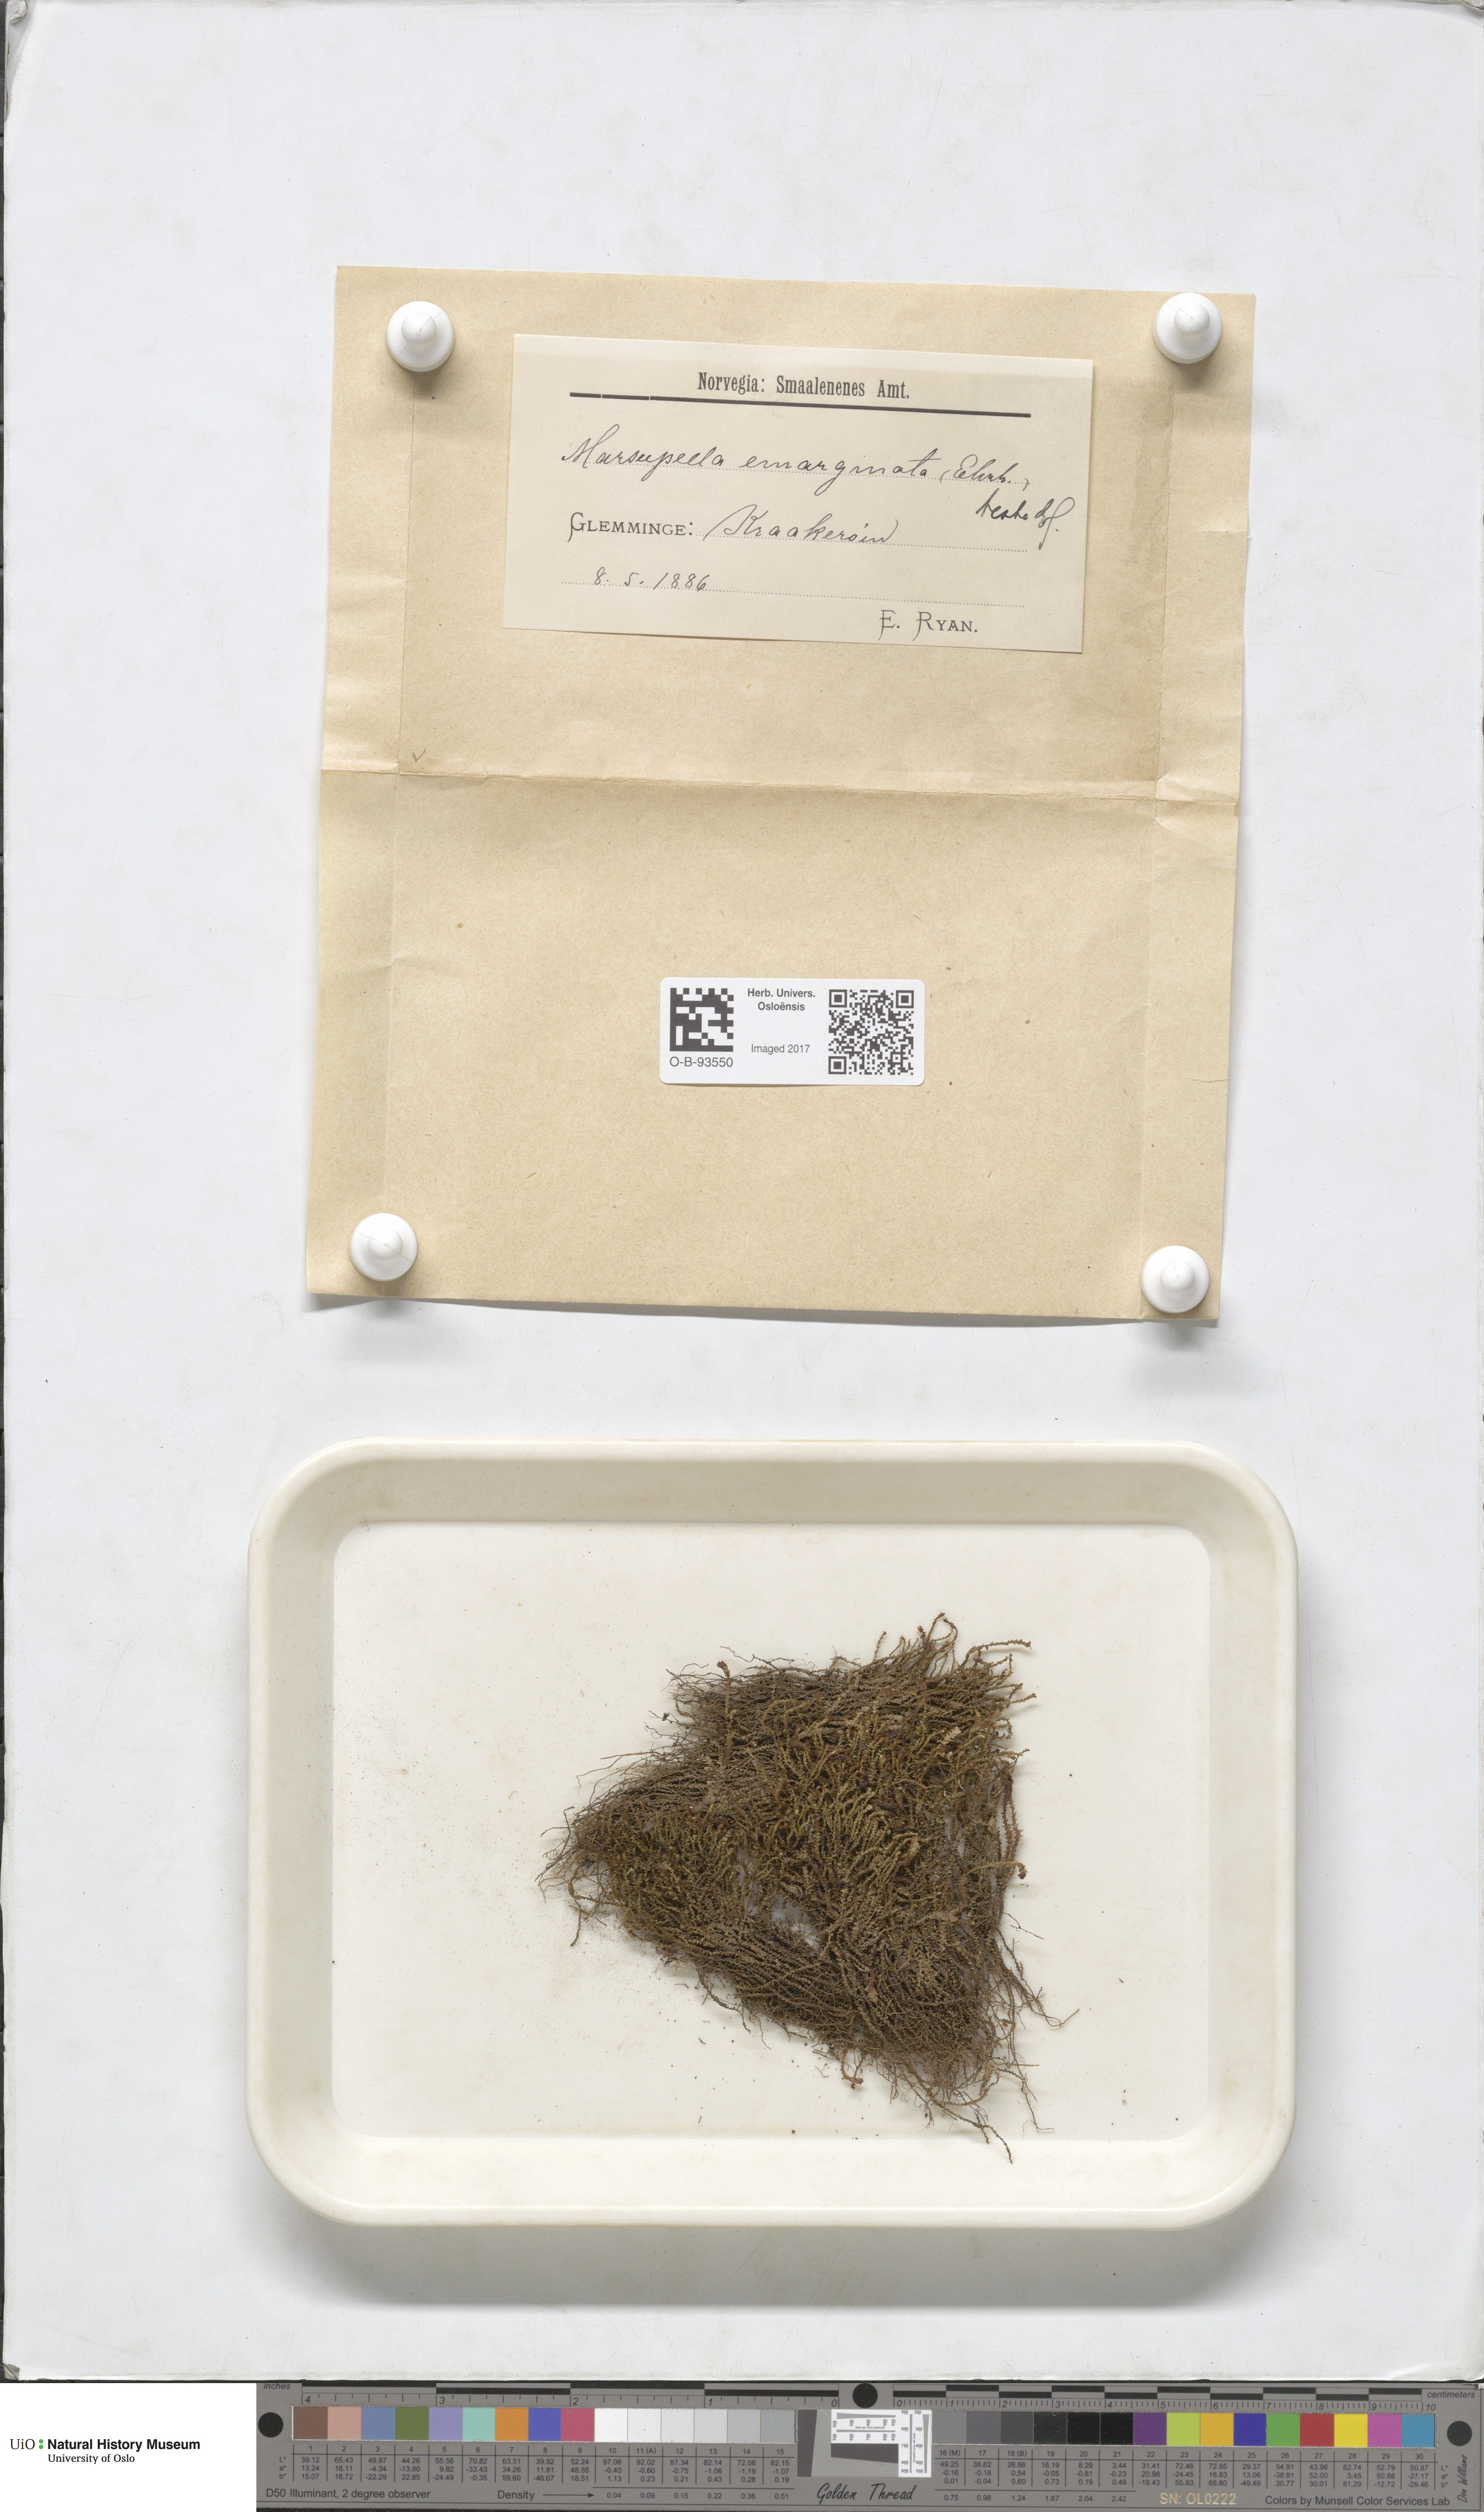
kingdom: Plantae
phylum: Marchantiophyta
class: Jungermanniopsida
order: Jungermanniales
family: Gymnomitriaceae
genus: Marsupella
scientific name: Marsupella emarginata
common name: Notched rustwort
